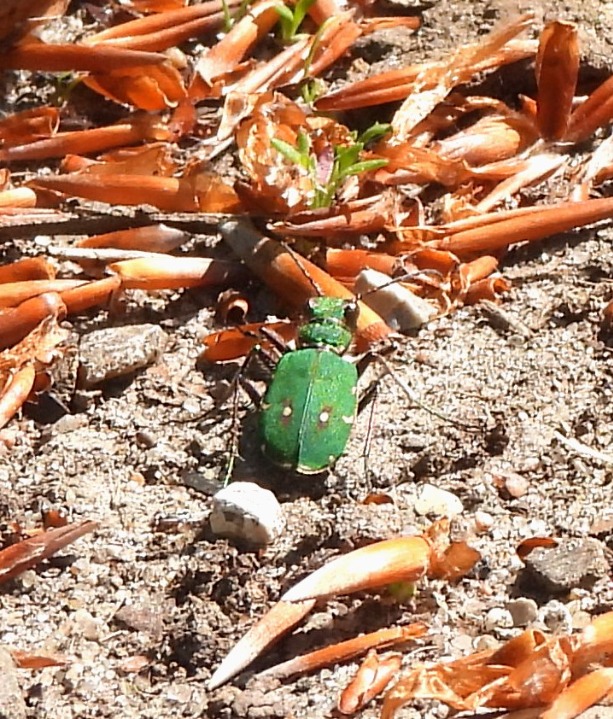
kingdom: Animalia
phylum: Arthropoda
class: Insecta
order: Coleoptera
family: Carabidae
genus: Cicindela
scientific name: Cicindela campestris
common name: Grøn sandspringer
